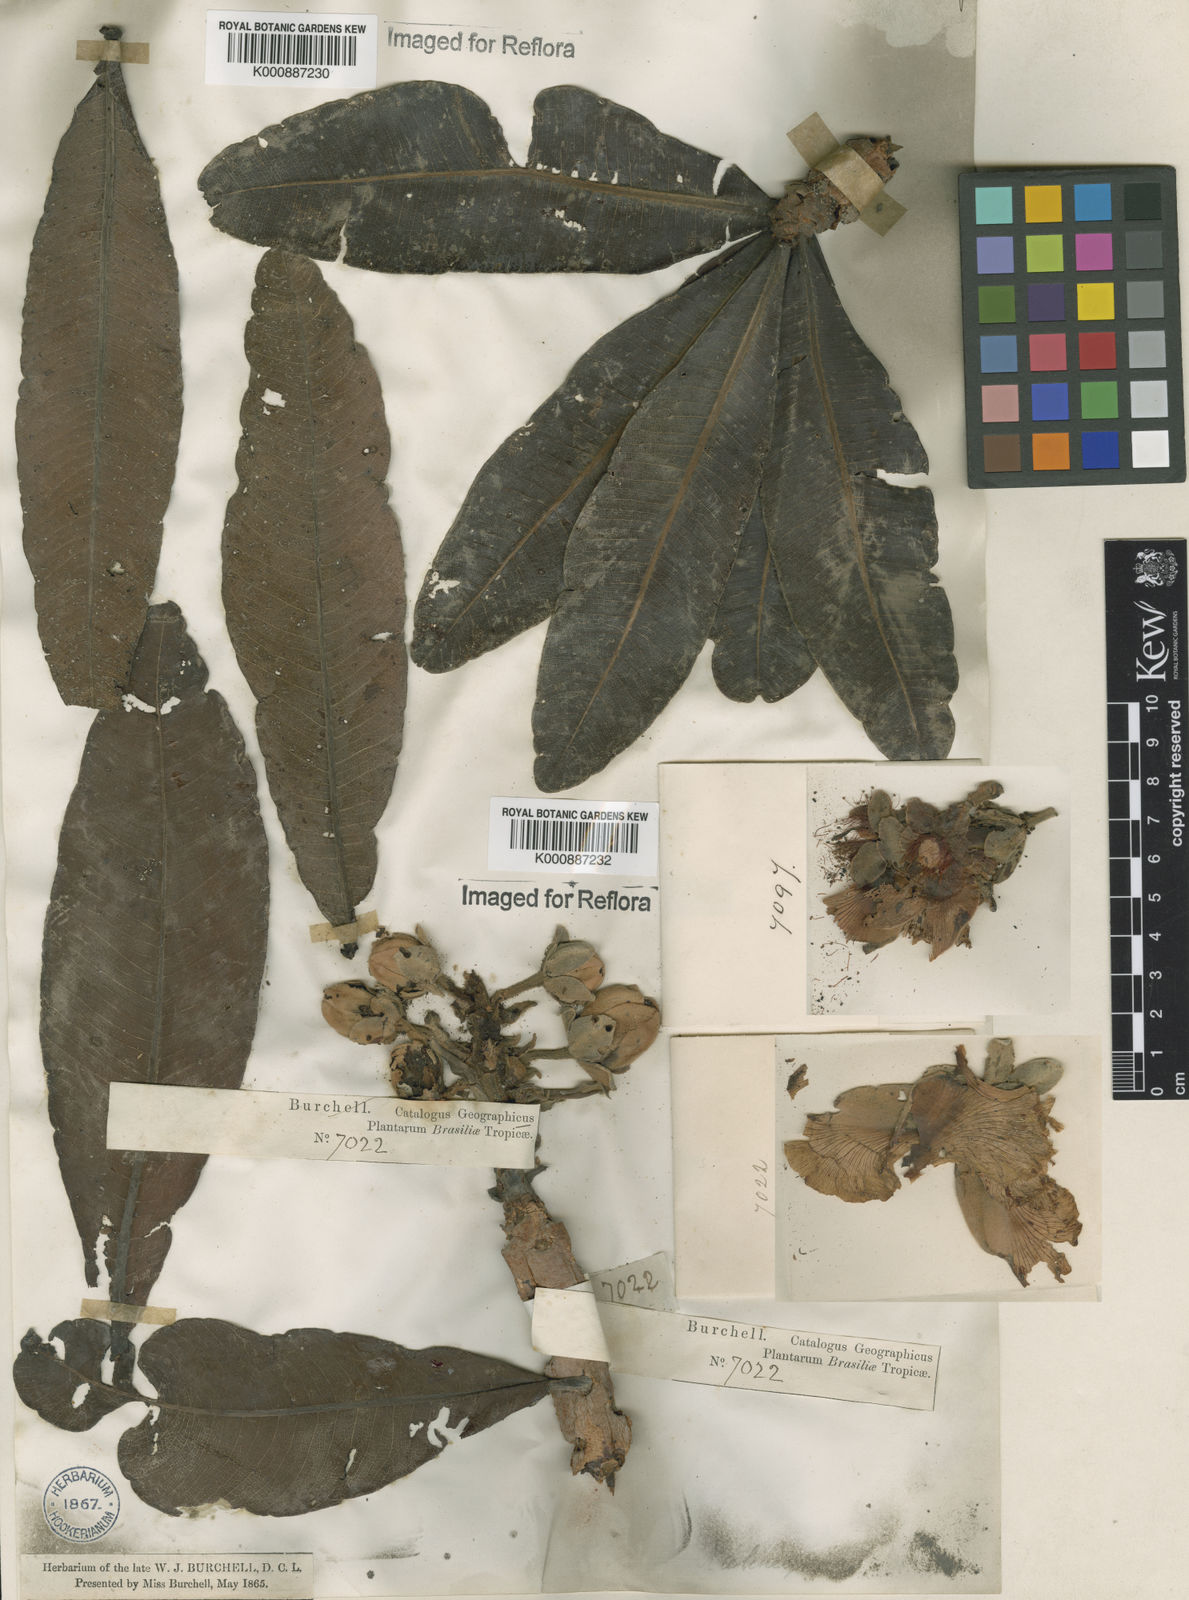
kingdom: Plantae
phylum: Tracheophyta
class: Magnoliopsida
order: Malpighiales
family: Calophyllaceae
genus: Kielmeyera
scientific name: Kielmeyera speciosa
